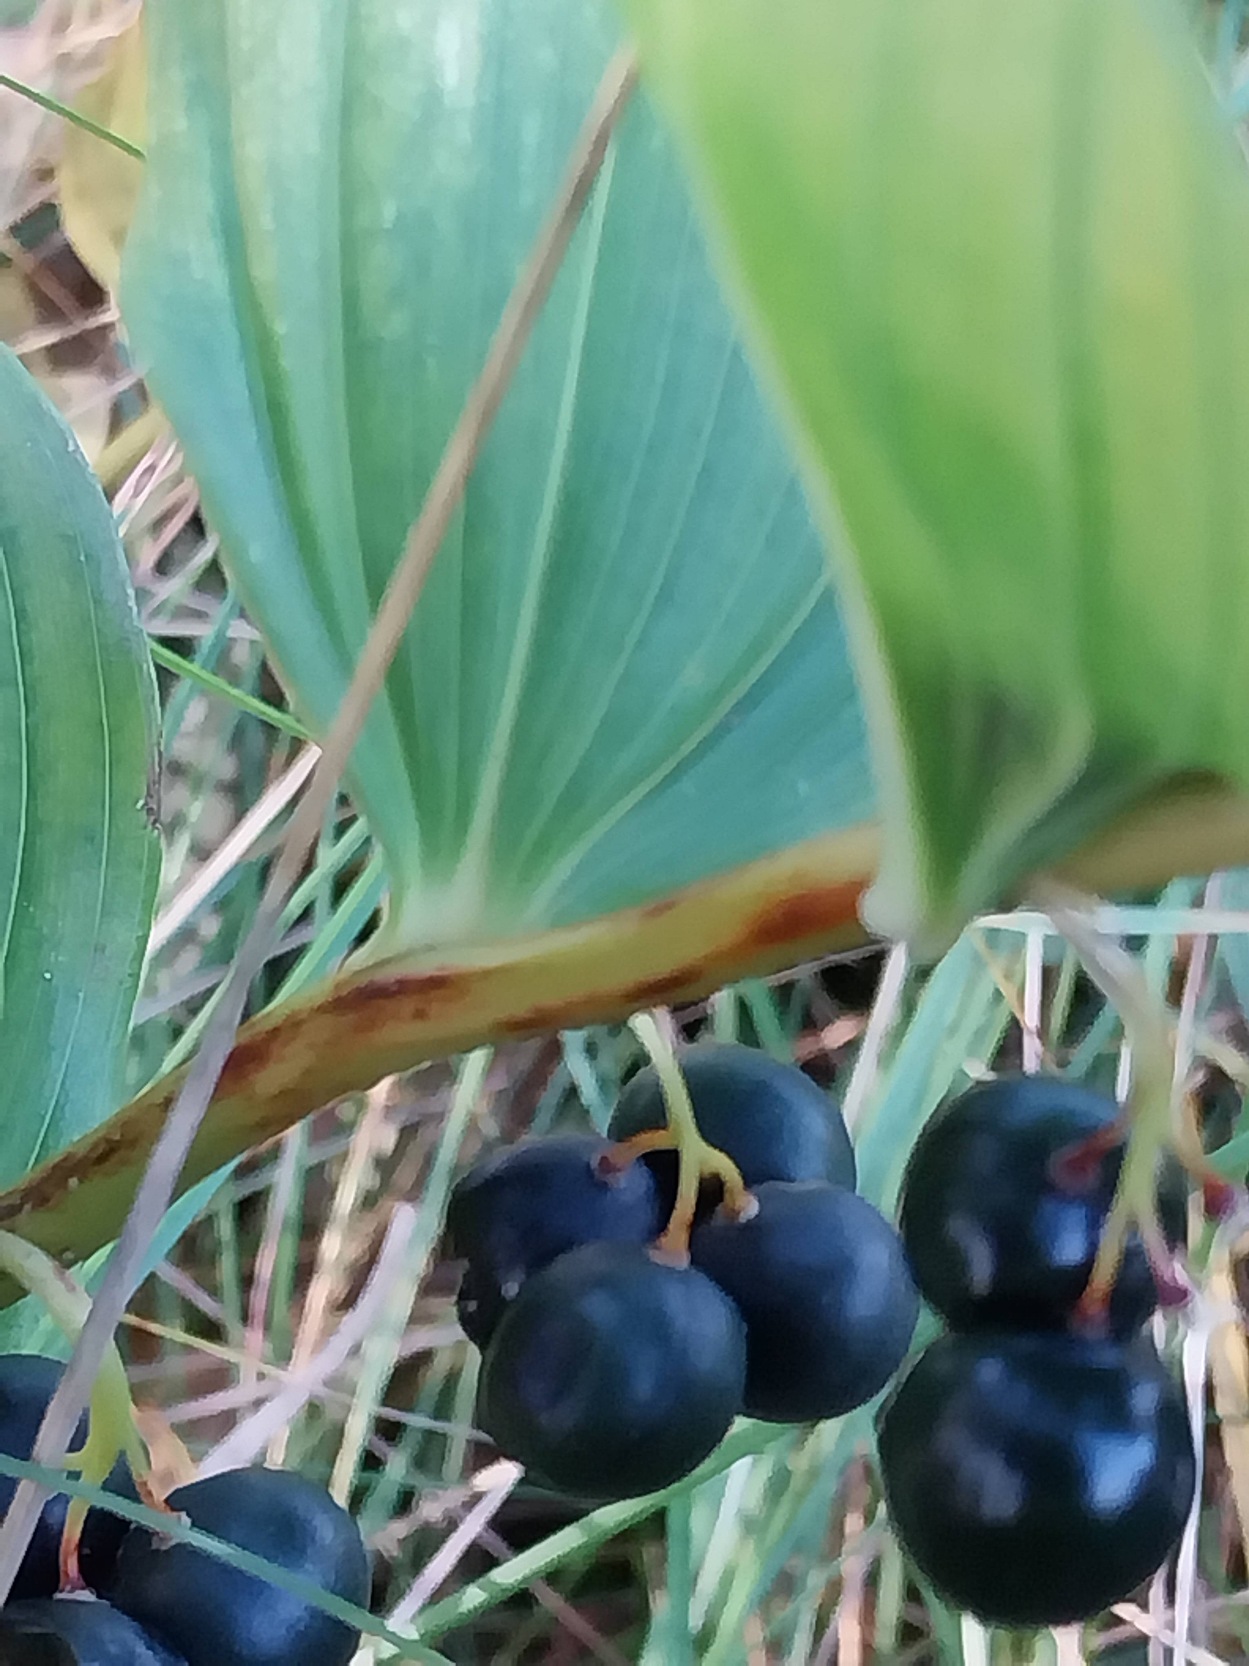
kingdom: Plantae
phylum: Tracheophyta
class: Liliopsida
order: Asparagales
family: Asparagaceae
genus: Polygonatum
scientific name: Polygonatum
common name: Hybrid-konval
